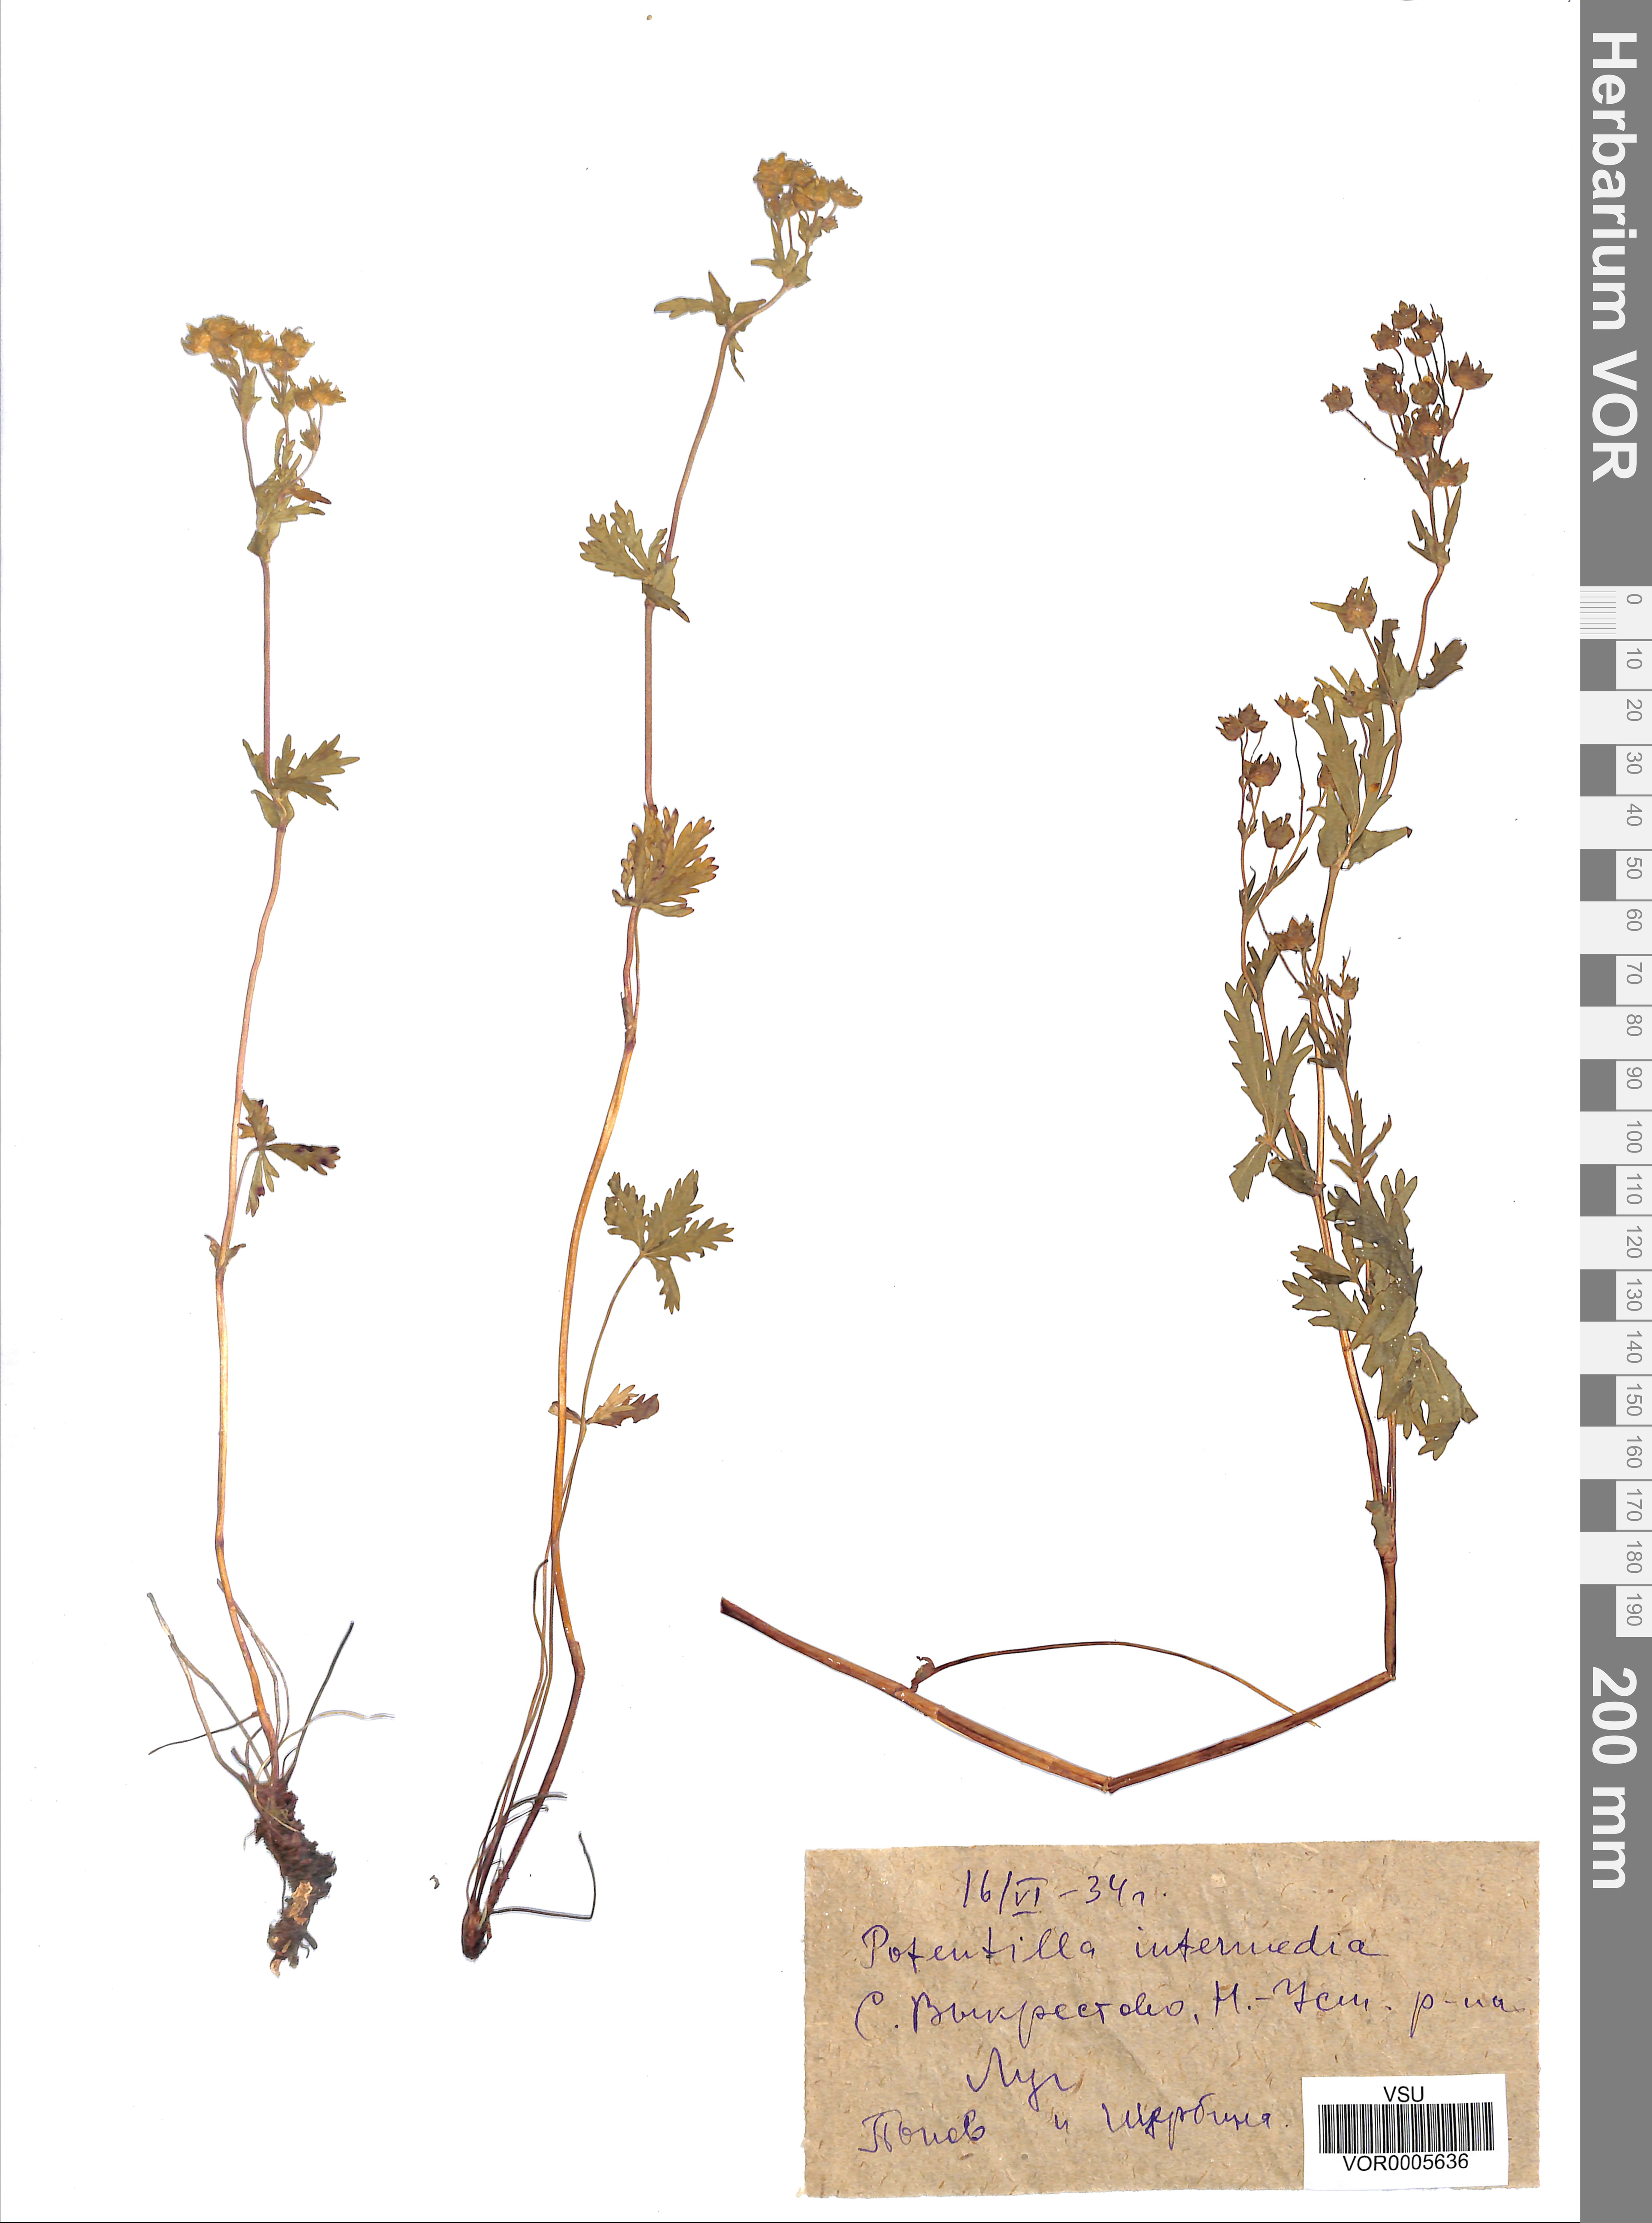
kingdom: Plantae
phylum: Tracheophyta
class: Magnoliopsida
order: Rosales
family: Rosaceae
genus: Potentilla
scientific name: Potentilla norvegica
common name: Ternate-leaved cinquefoil
